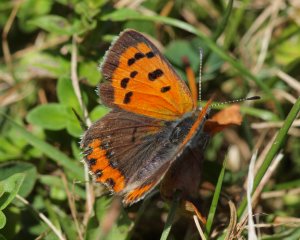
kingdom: Animalia
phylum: Arthropoda
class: Insecta
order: Lepidoptera
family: Lycaenidae
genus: Lycaena
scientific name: Lycaena phlaeas
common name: American Copper
